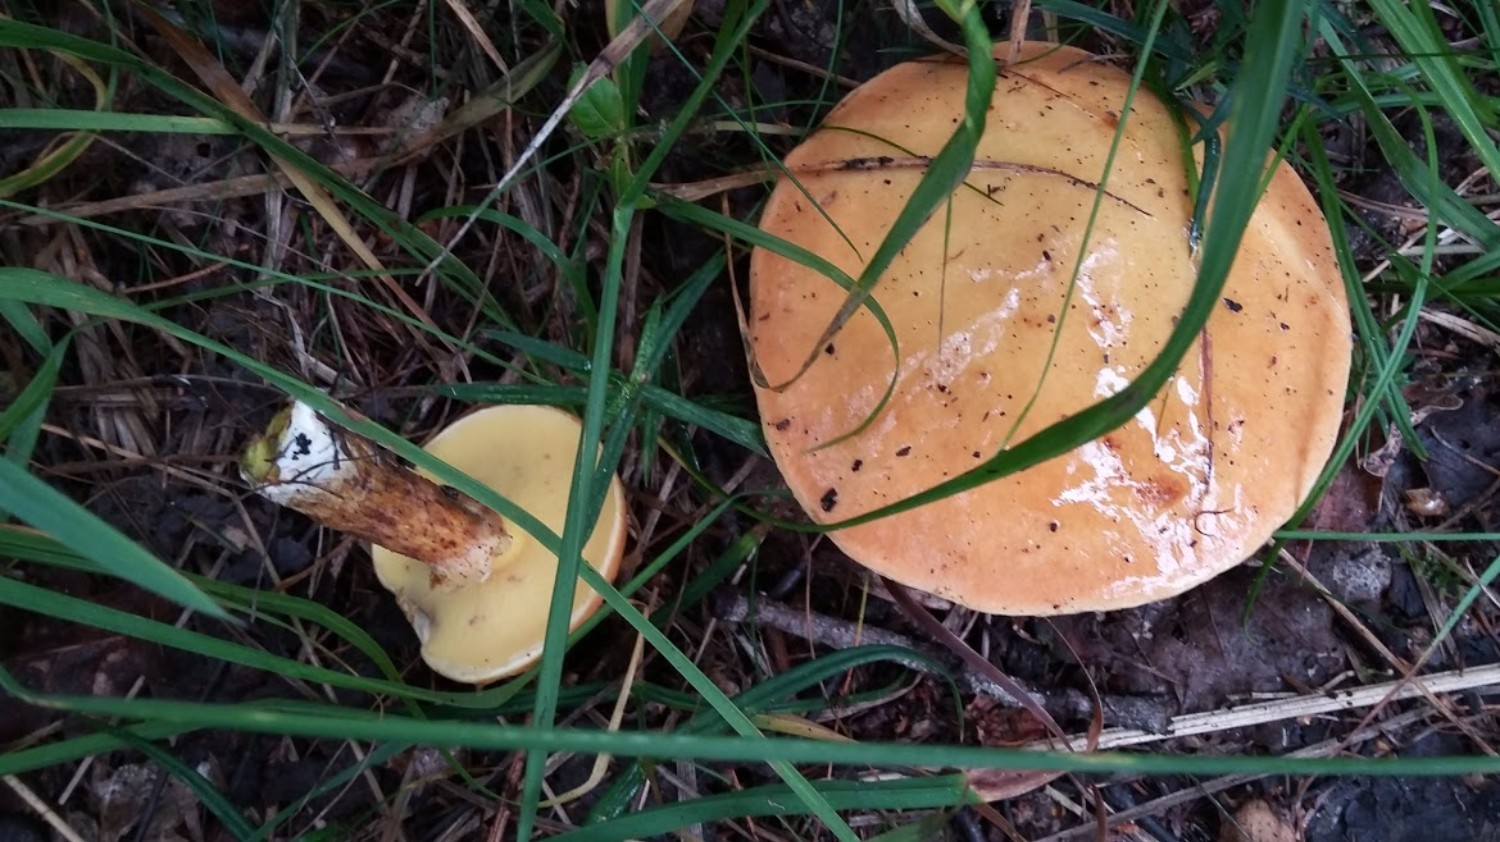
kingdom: Fungi
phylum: Basidiomycota
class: Agaricomycetes
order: Boletales
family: Suillaceae
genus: Suillus
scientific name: Suillus grevillei
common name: lærke-slimrørhat
